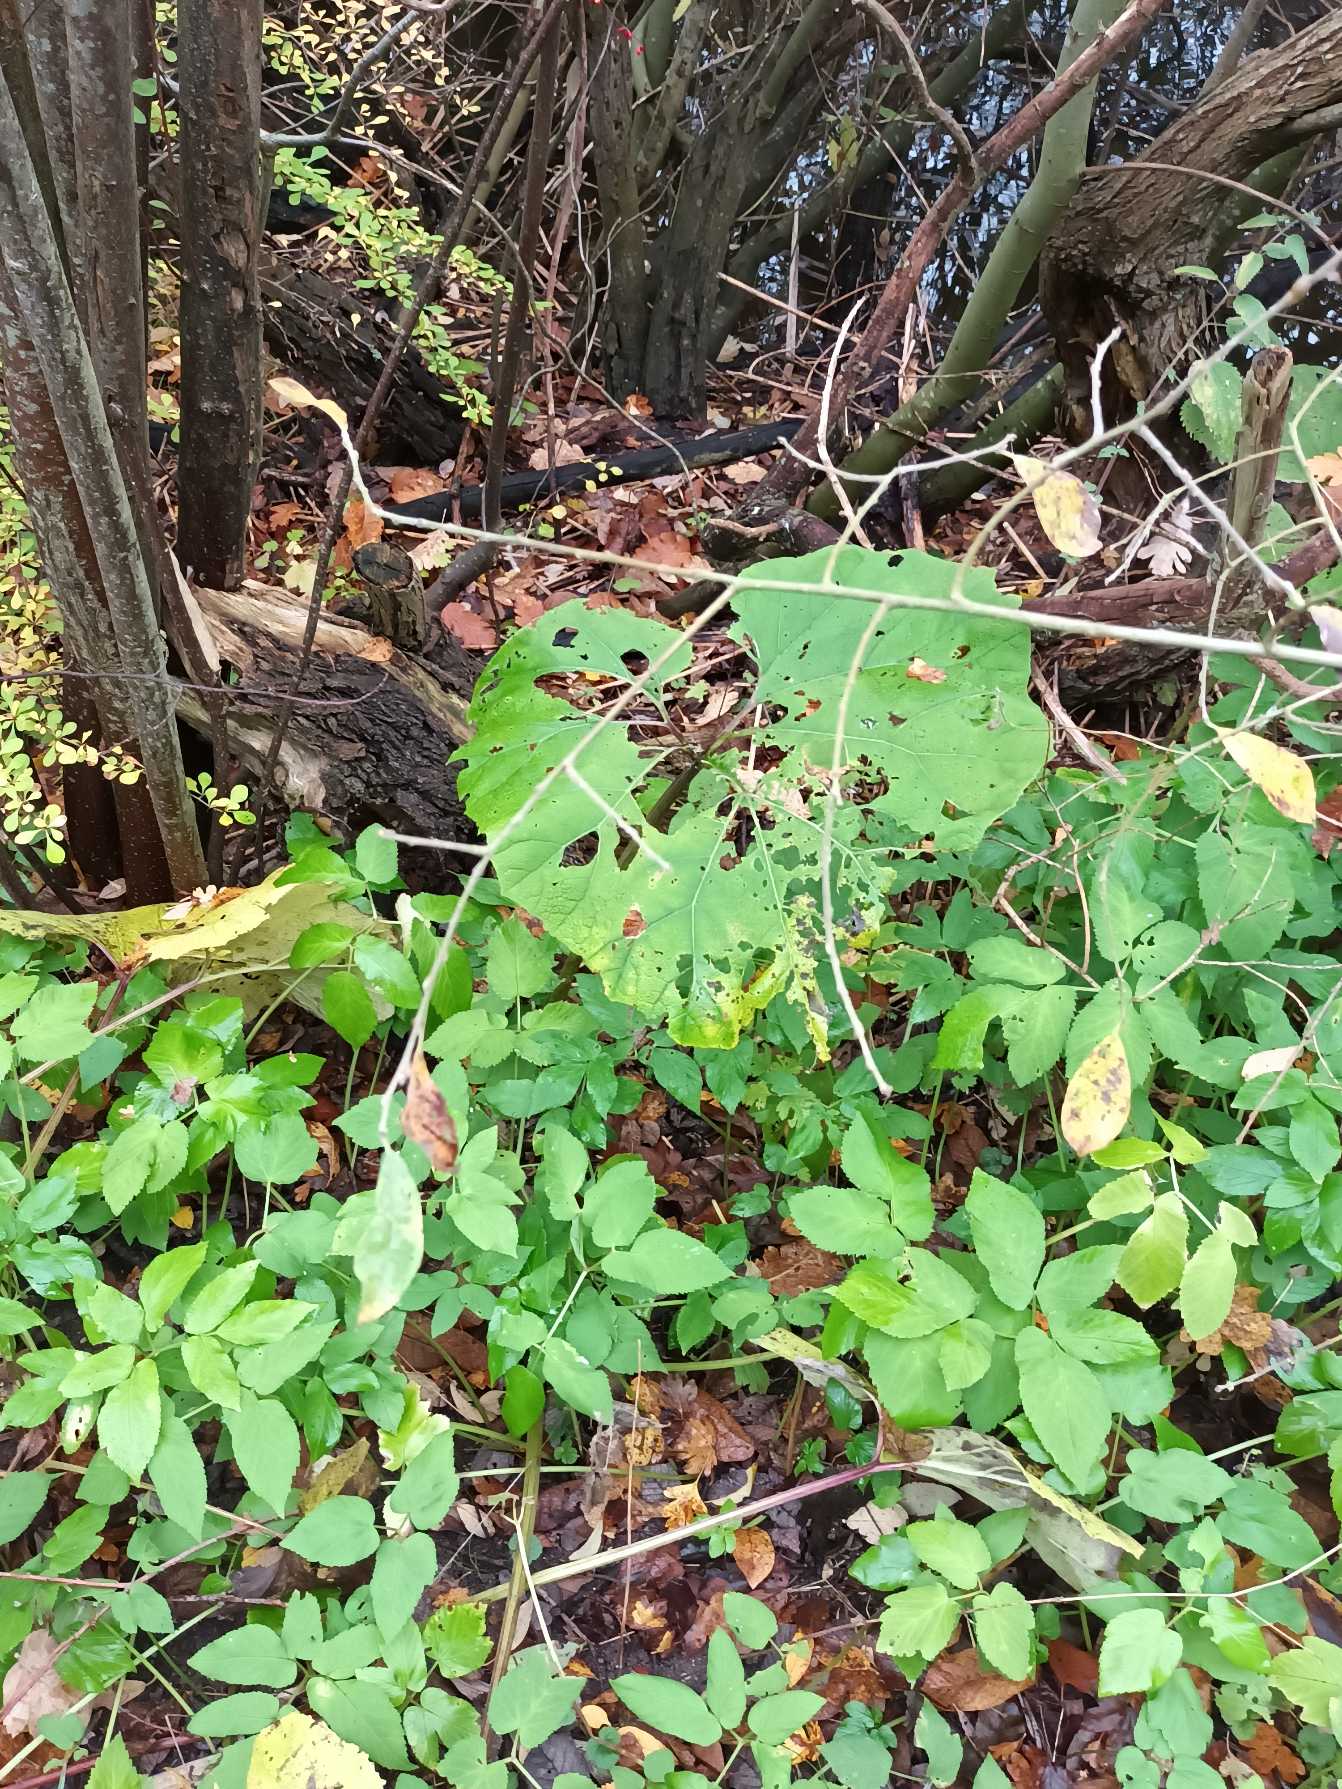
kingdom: Plantae
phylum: Tracheophyta
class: Magnoliopsida
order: Asterales
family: Asteraceae
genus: Petasites
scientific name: Petasites hybridus
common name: Rød hestehov
